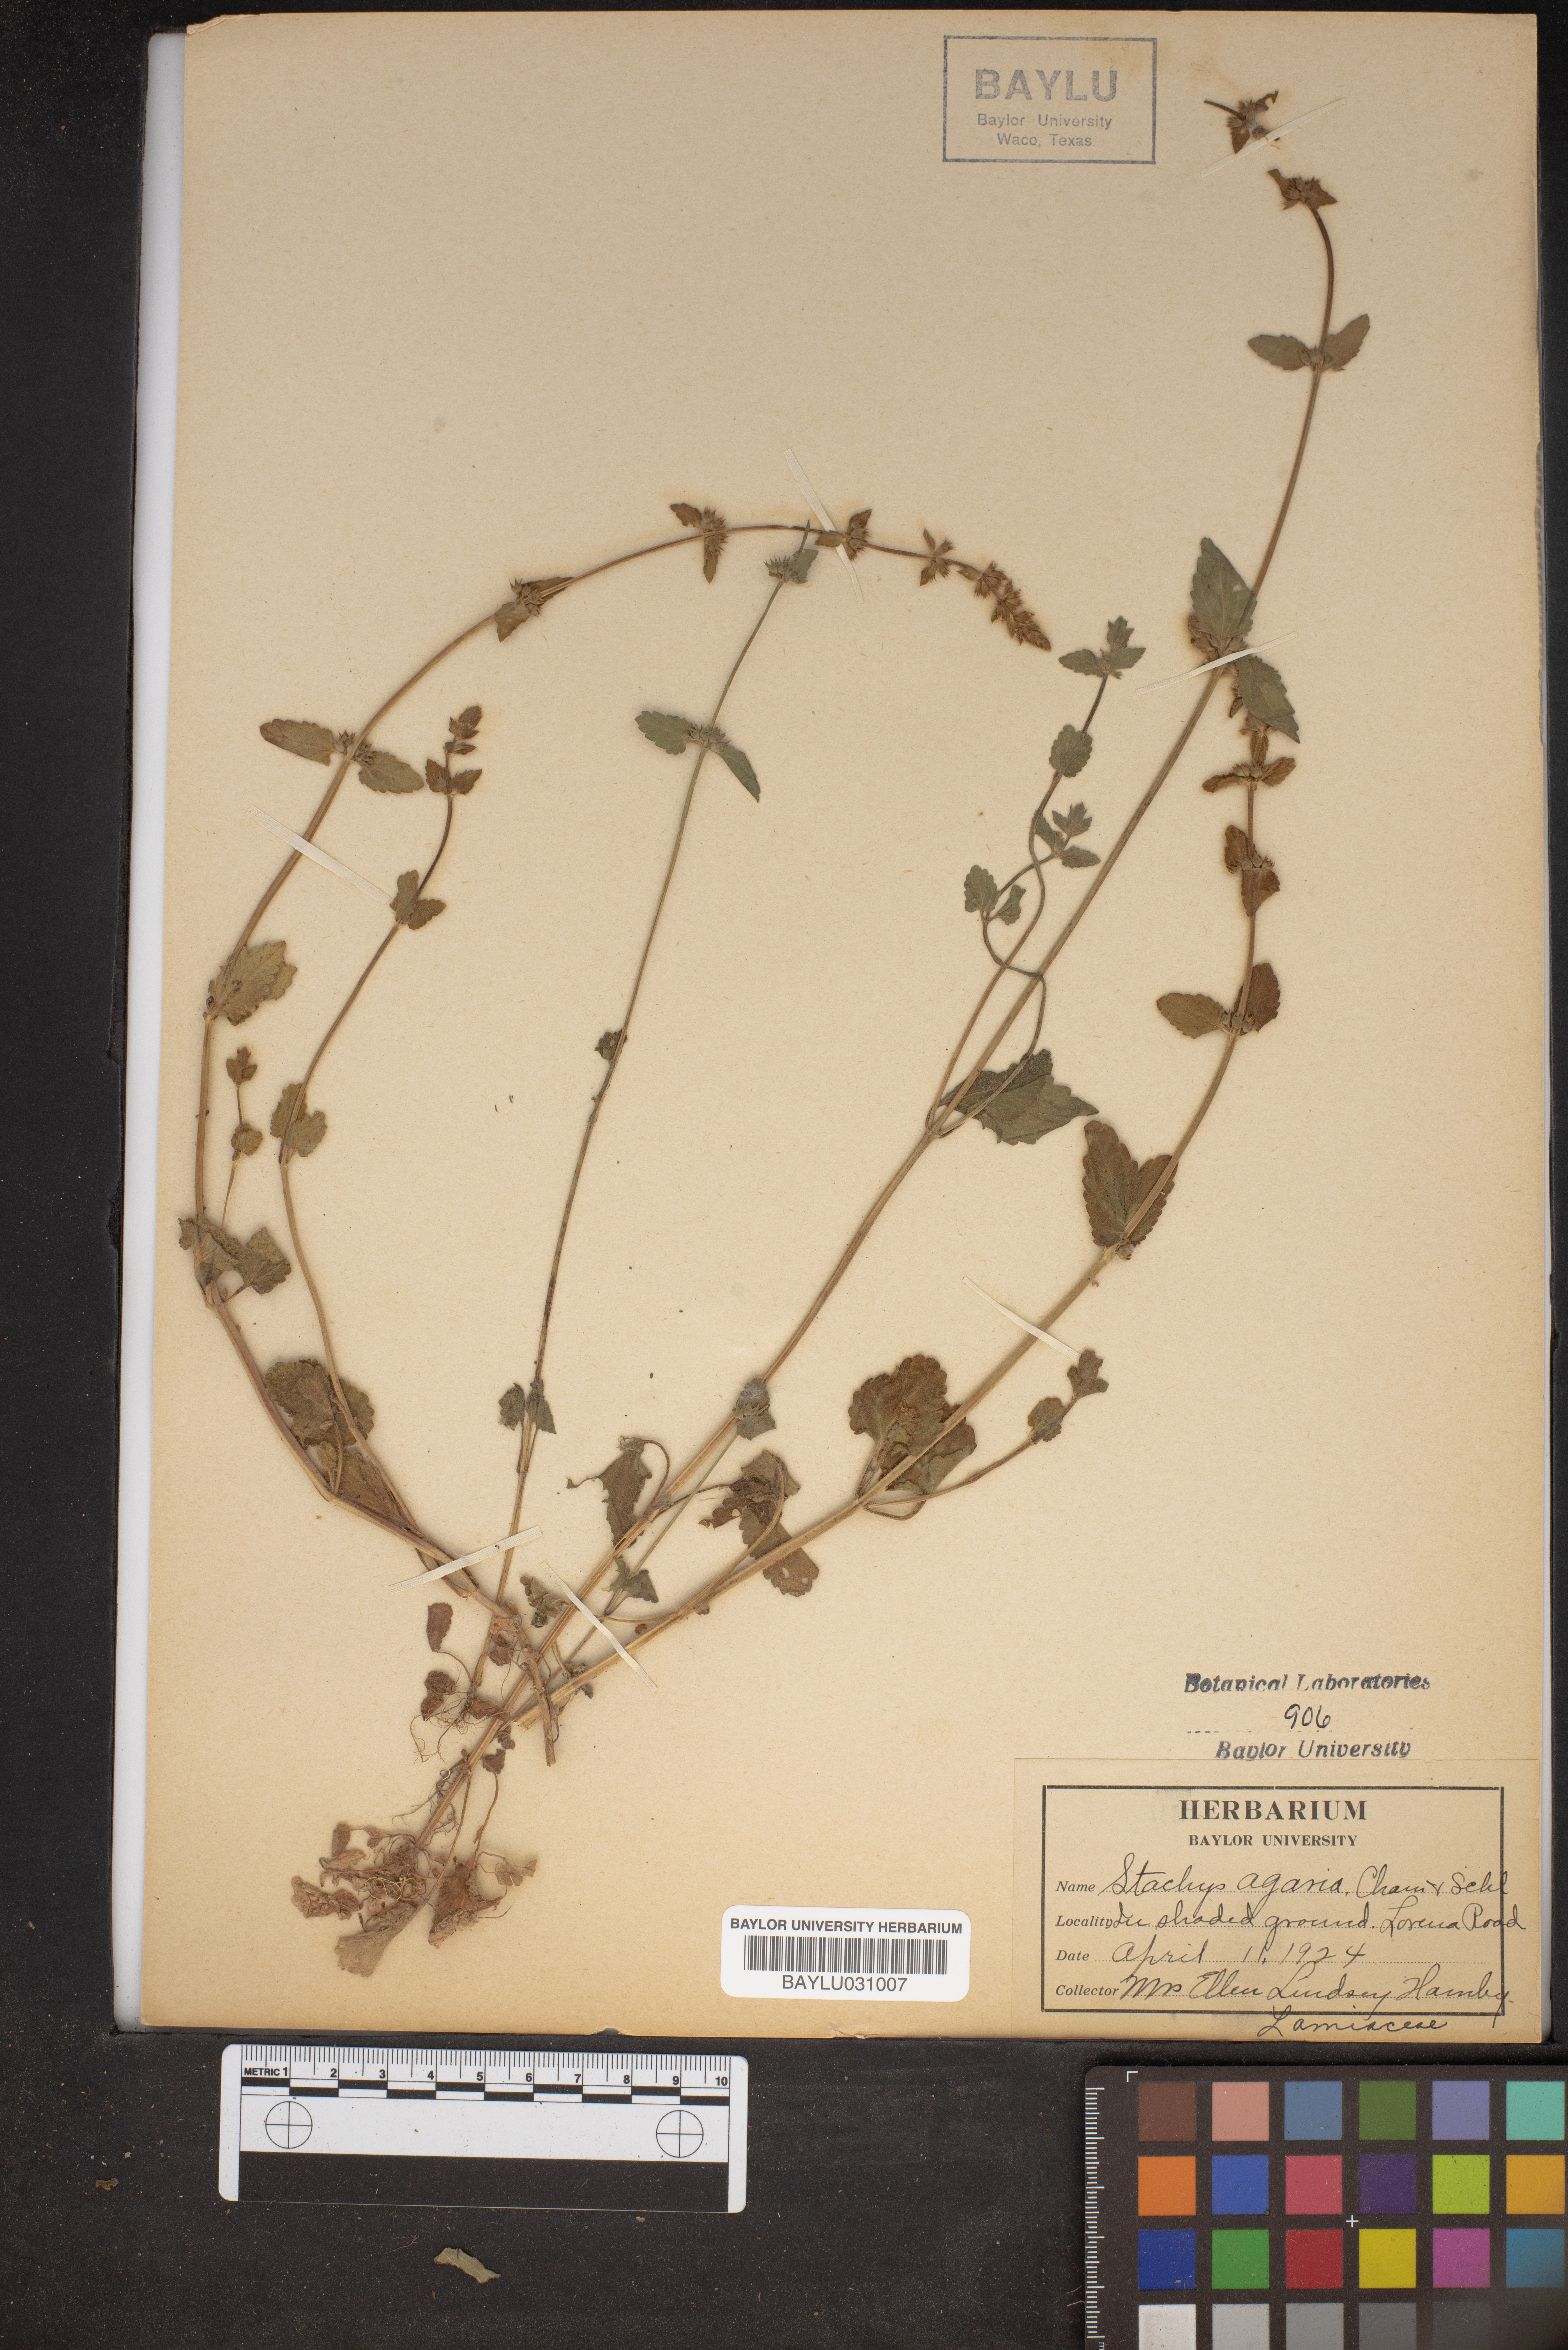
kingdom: Plantae
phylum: Tracheophyta
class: Magnoliopsida
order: Lamiales
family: Lamiaceae
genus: Stachys
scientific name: Stachys agraria
